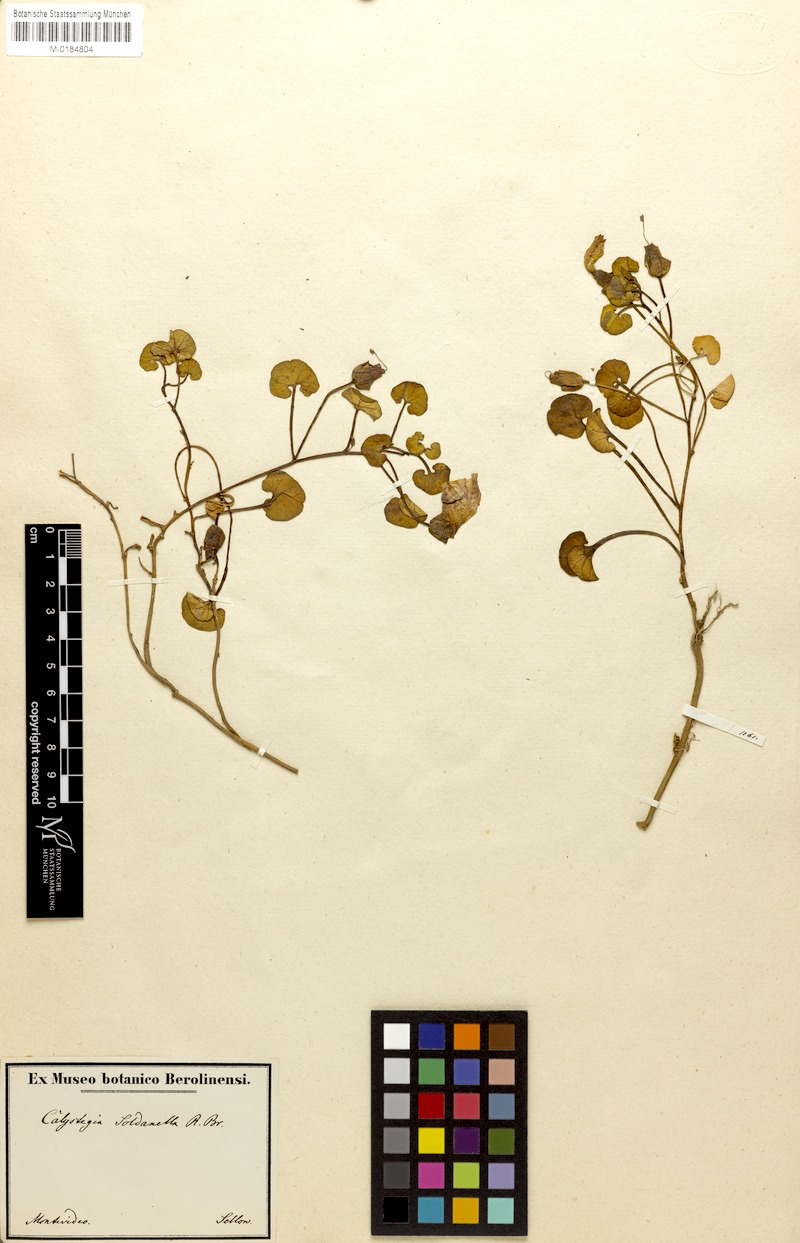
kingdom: Plantae
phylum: Tracheophyta
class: Magnoliopsida
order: Solanales
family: Convolvulaceae
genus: Calystegia
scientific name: Calystegia soldanella
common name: Sea bindweed
